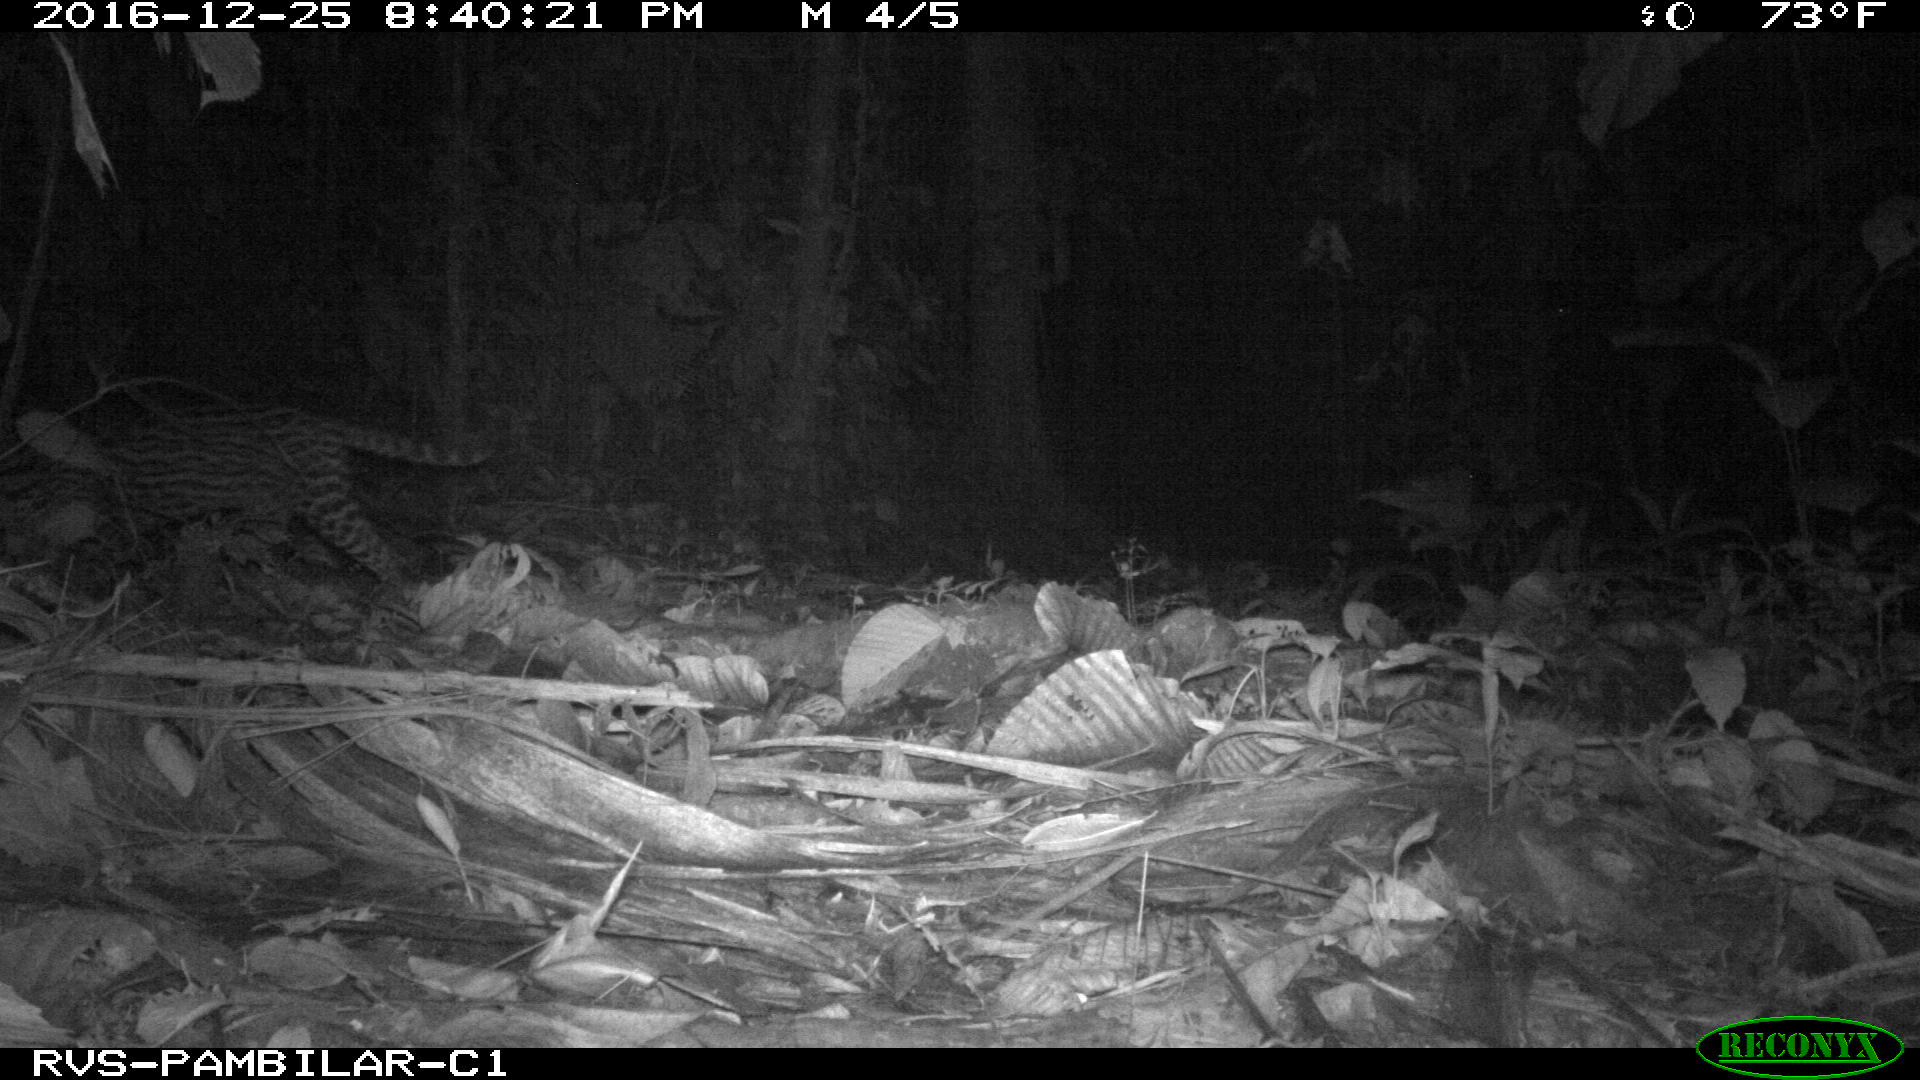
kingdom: Animalia
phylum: Chordata
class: Mammalia
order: Carnivora
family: Felidae
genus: Leopardus
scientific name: Leopardus pardalis
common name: Ocelot
